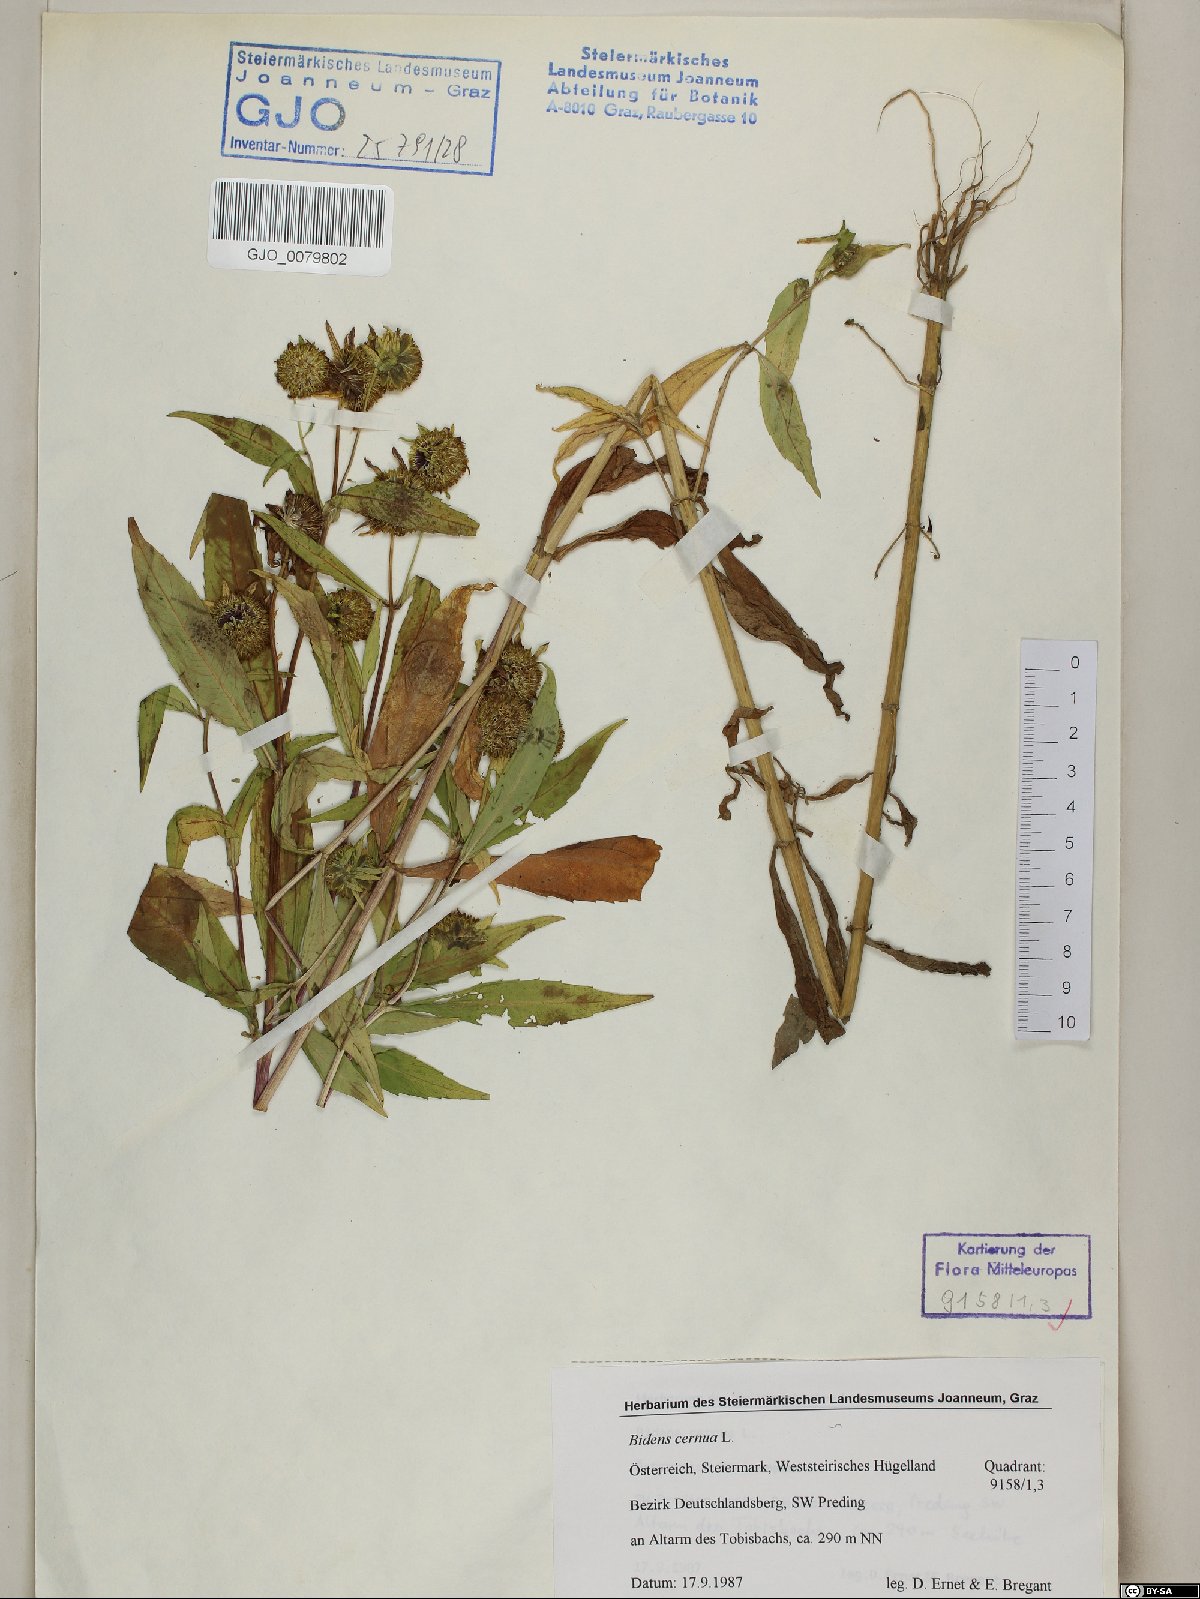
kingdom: Plantae
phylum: Tracheophyta
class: Magnoliopsida
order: Asterales
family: Asteraceae
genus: Bidens
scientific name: Bidens cernua
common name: Nodding bur-marigold
